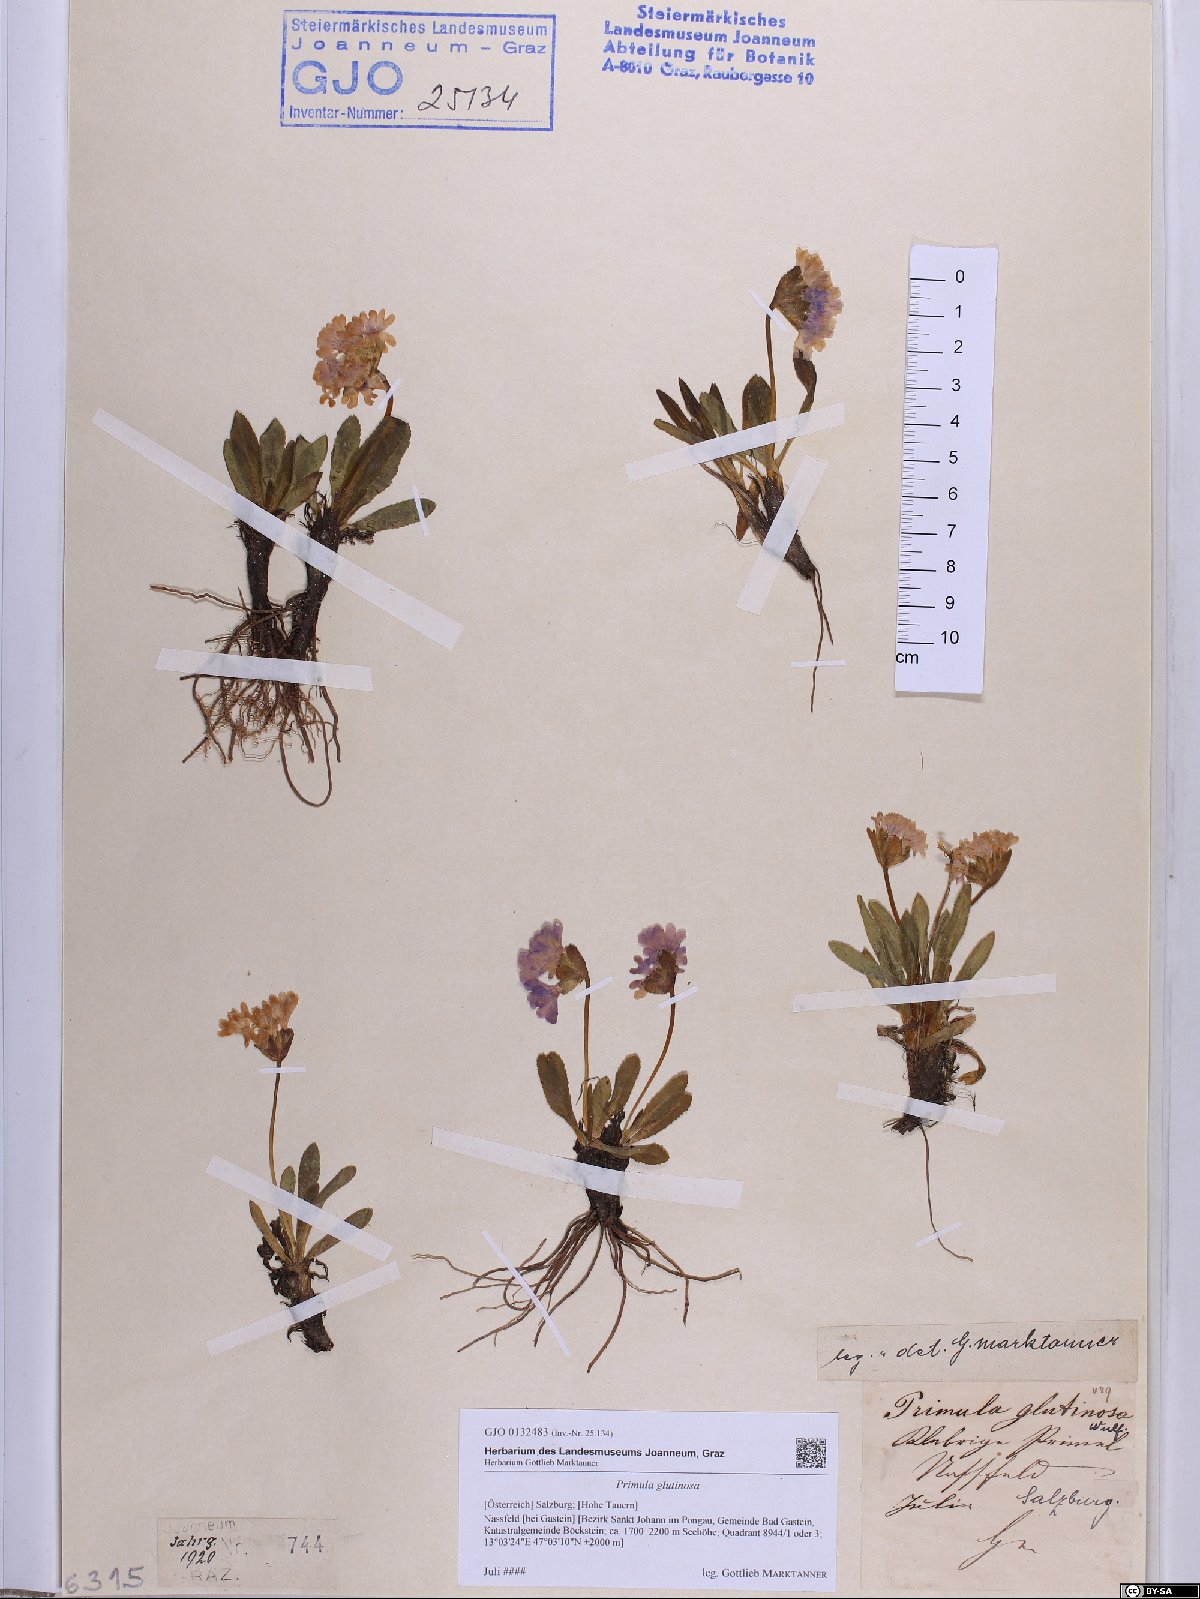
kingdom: Plantae
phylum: Tracheophyta
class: Magnoliopsida
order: Ericales
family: Primulaceae
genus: Primula
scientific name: Primula glutinosa
